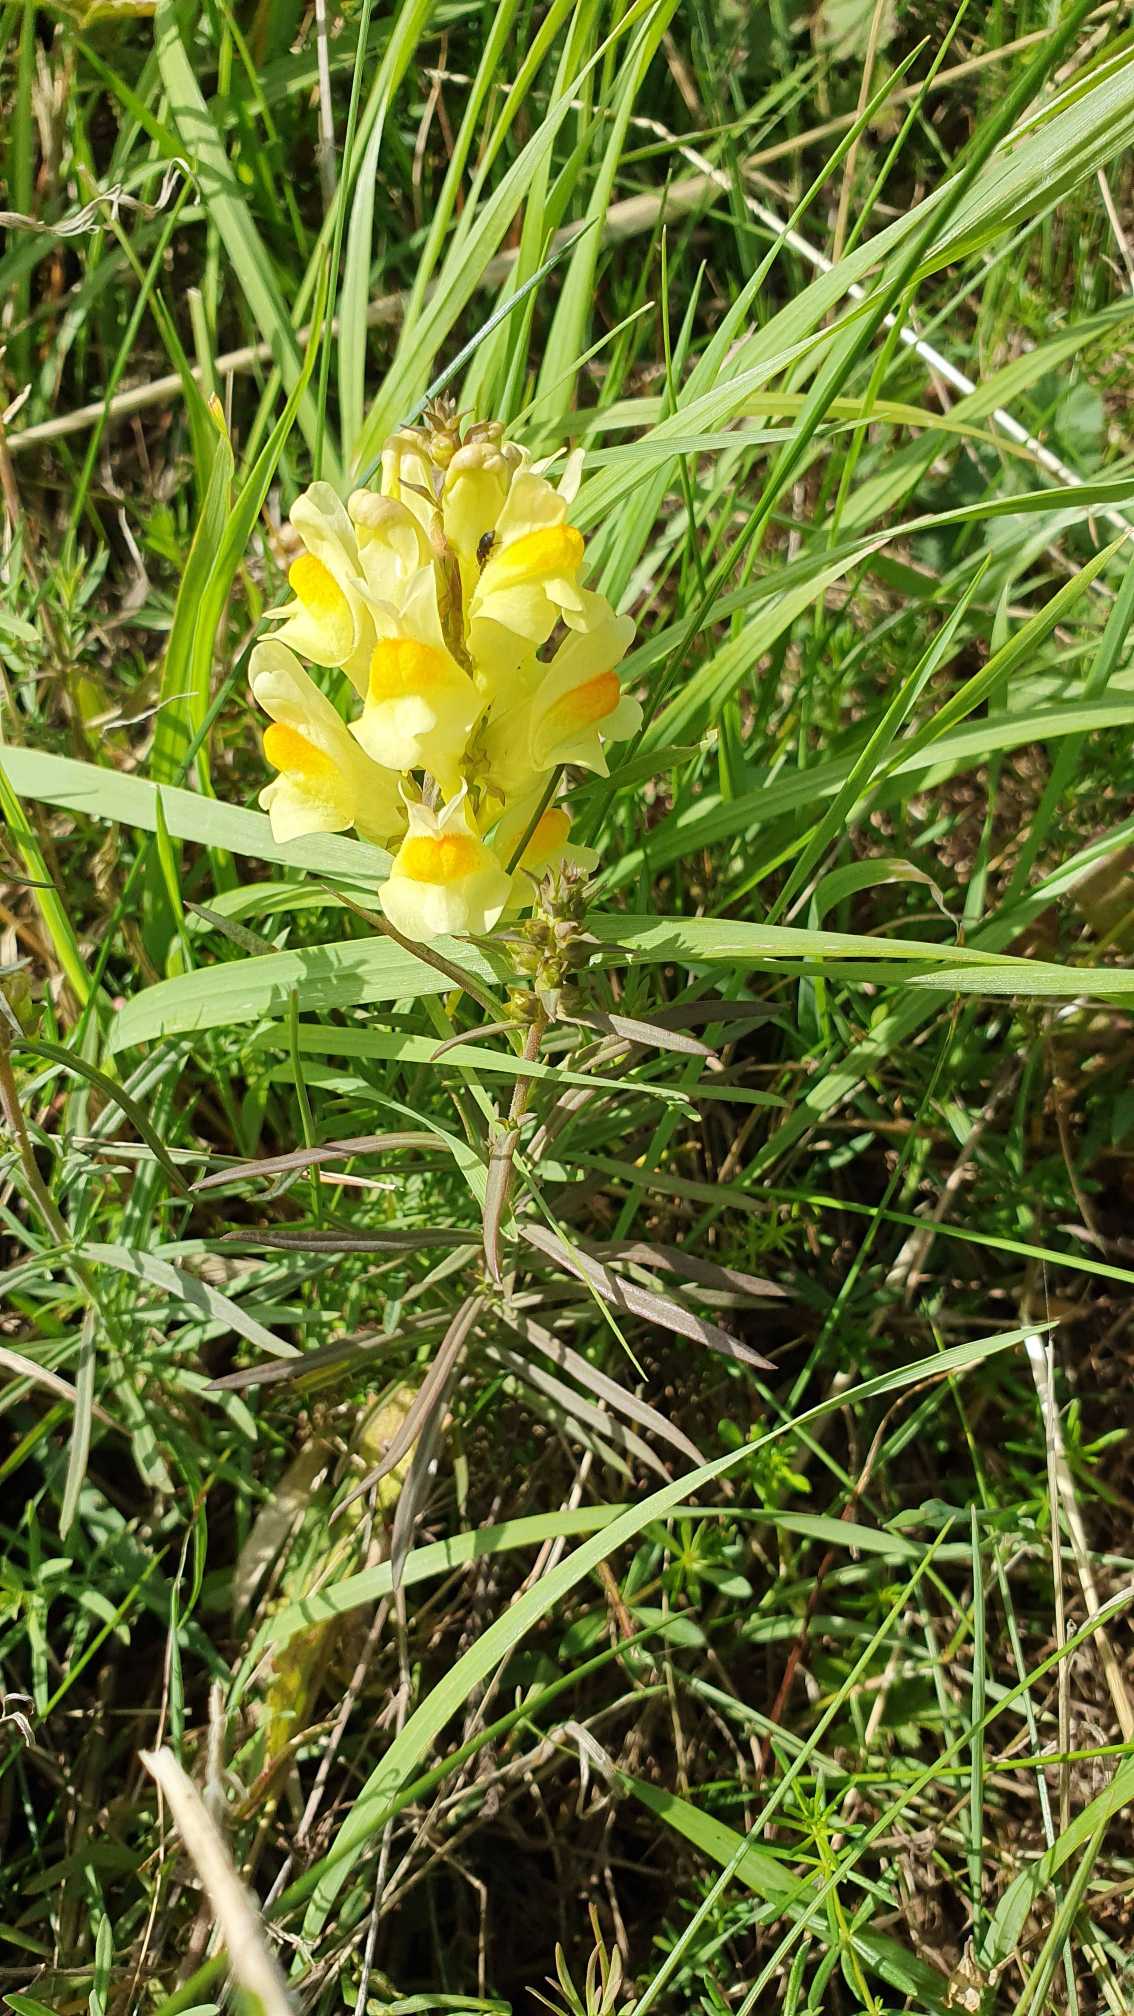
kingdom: Plantae
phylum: Tracheophyta
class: Magnoliopsida
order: Lamiales
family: Plantaginaceae
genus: Linaria
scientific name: Linaria vulgaris
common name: Almindelig torskemund
